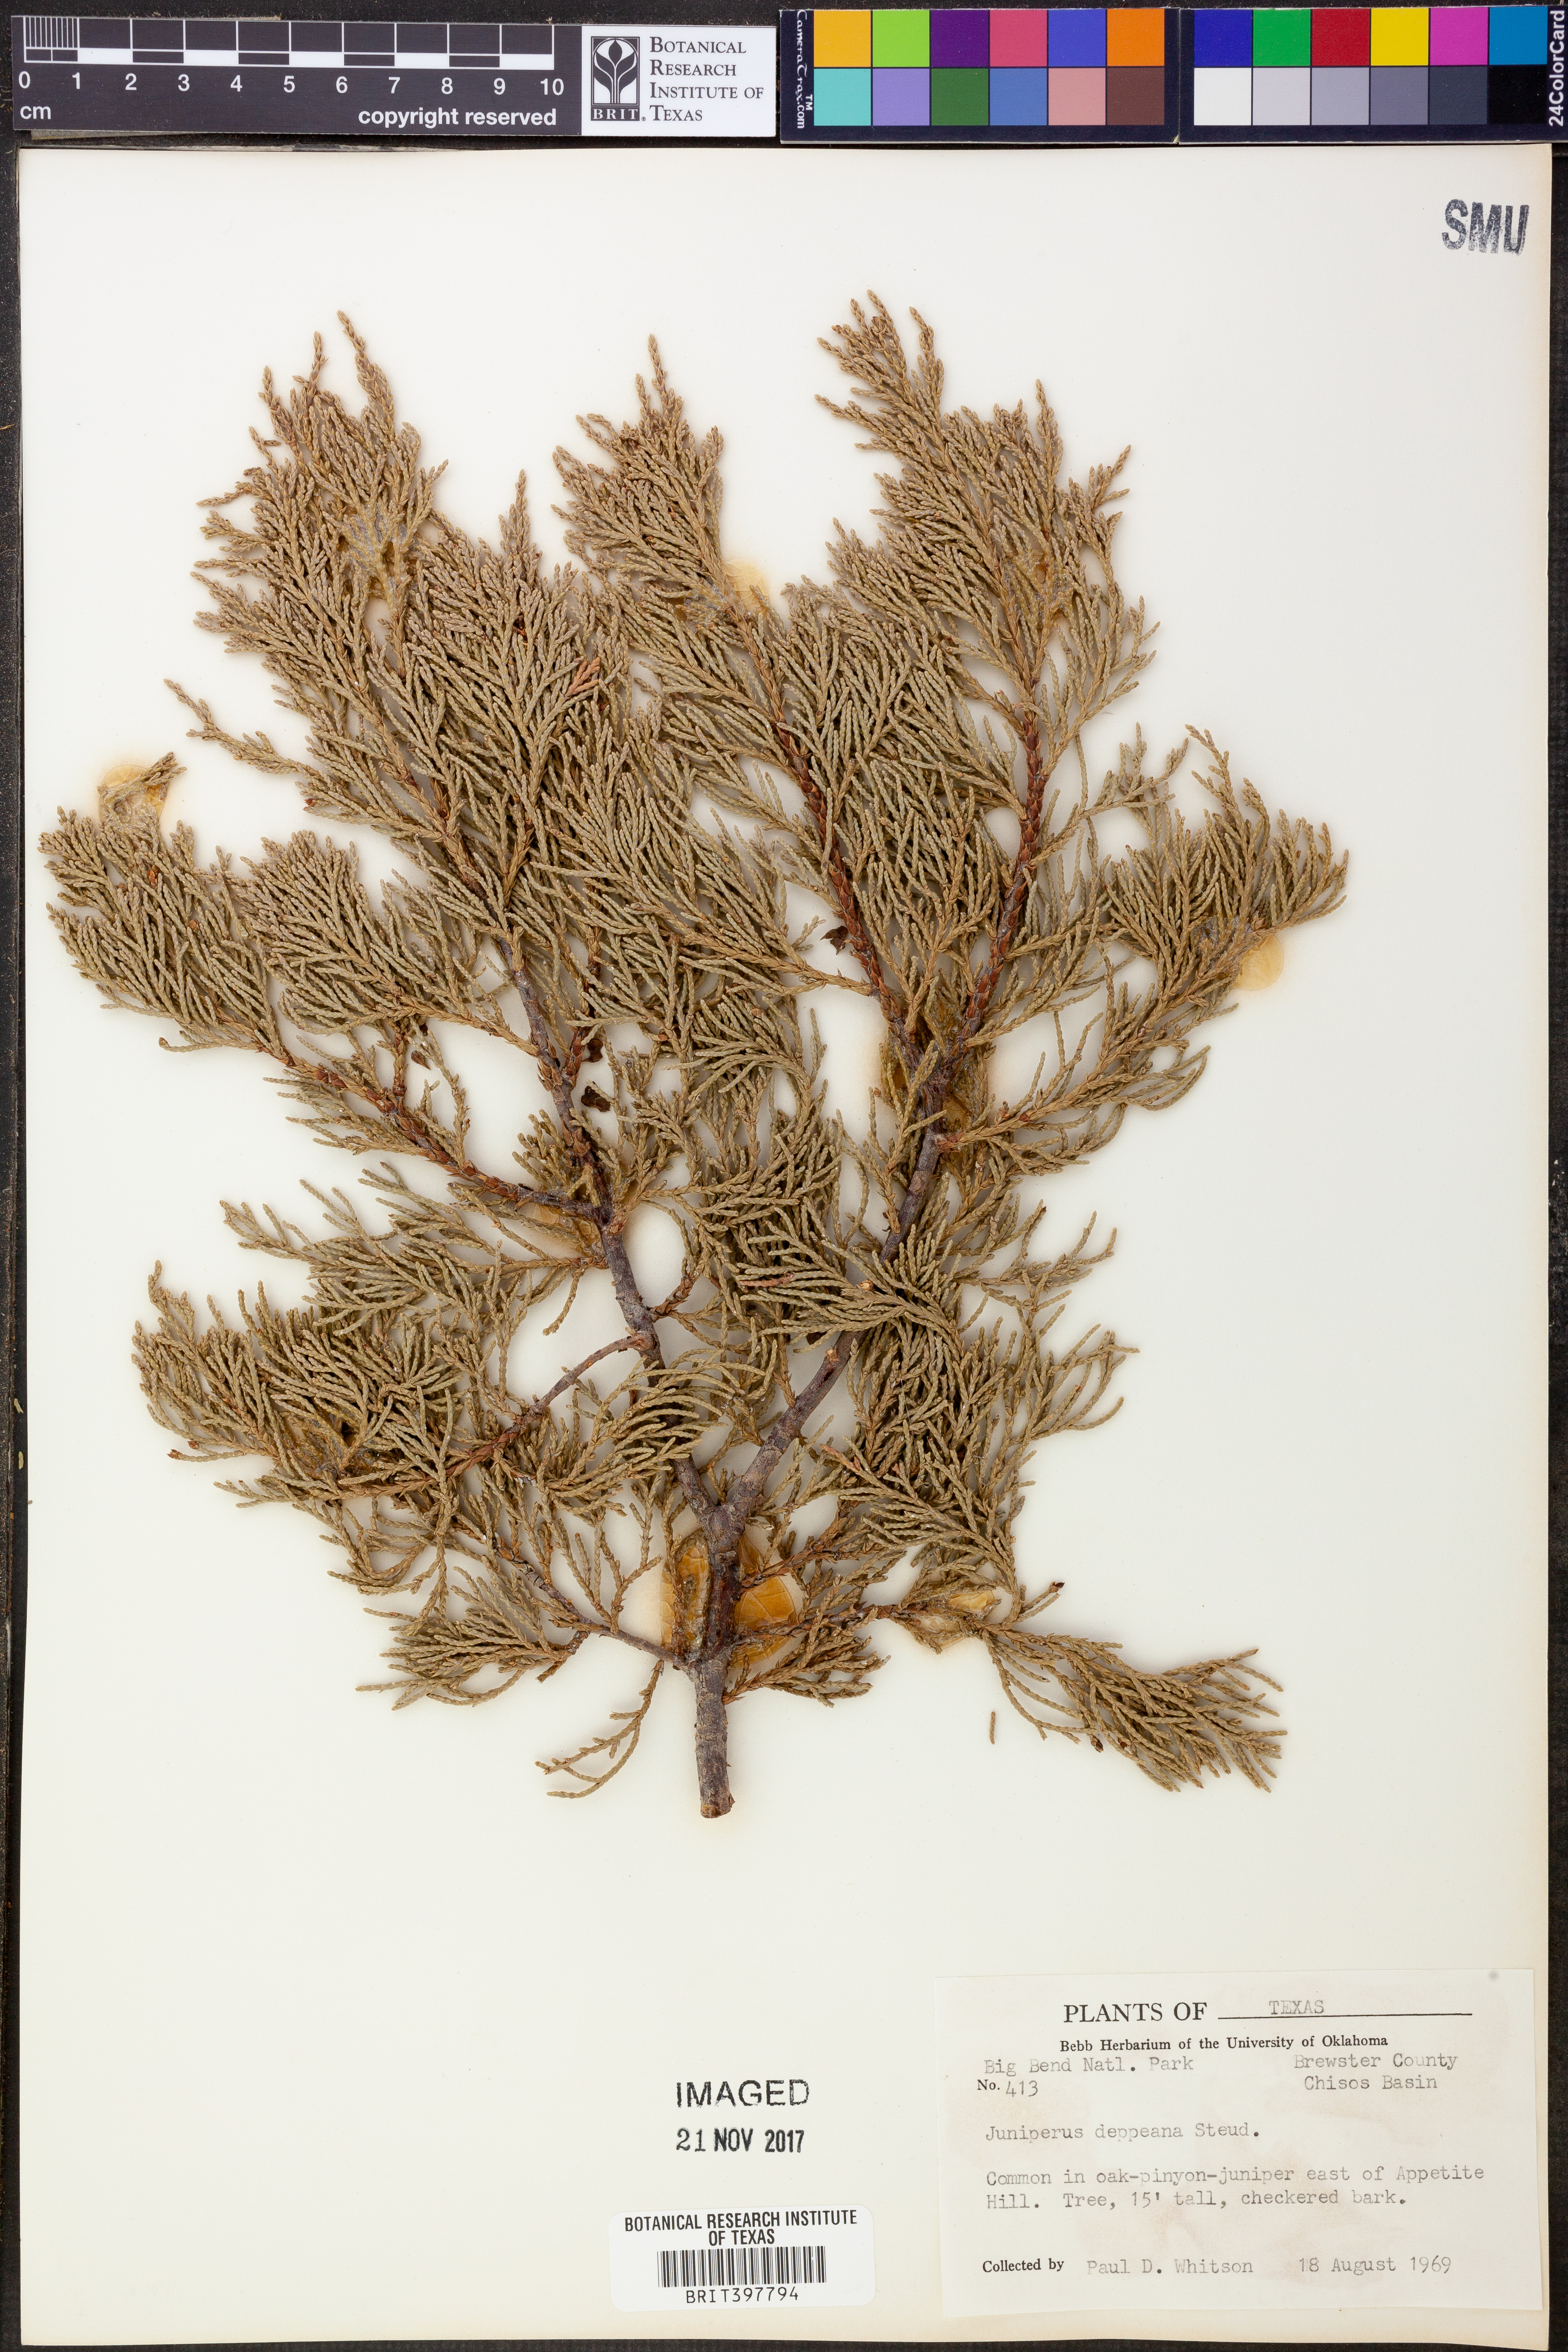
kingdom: Plantae
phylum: Tracheophyta
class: Pinopsida
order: Pinales
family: Cupressaceae
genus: Juniperus
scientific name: Juniperus deppeana
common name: Alligator juniper
